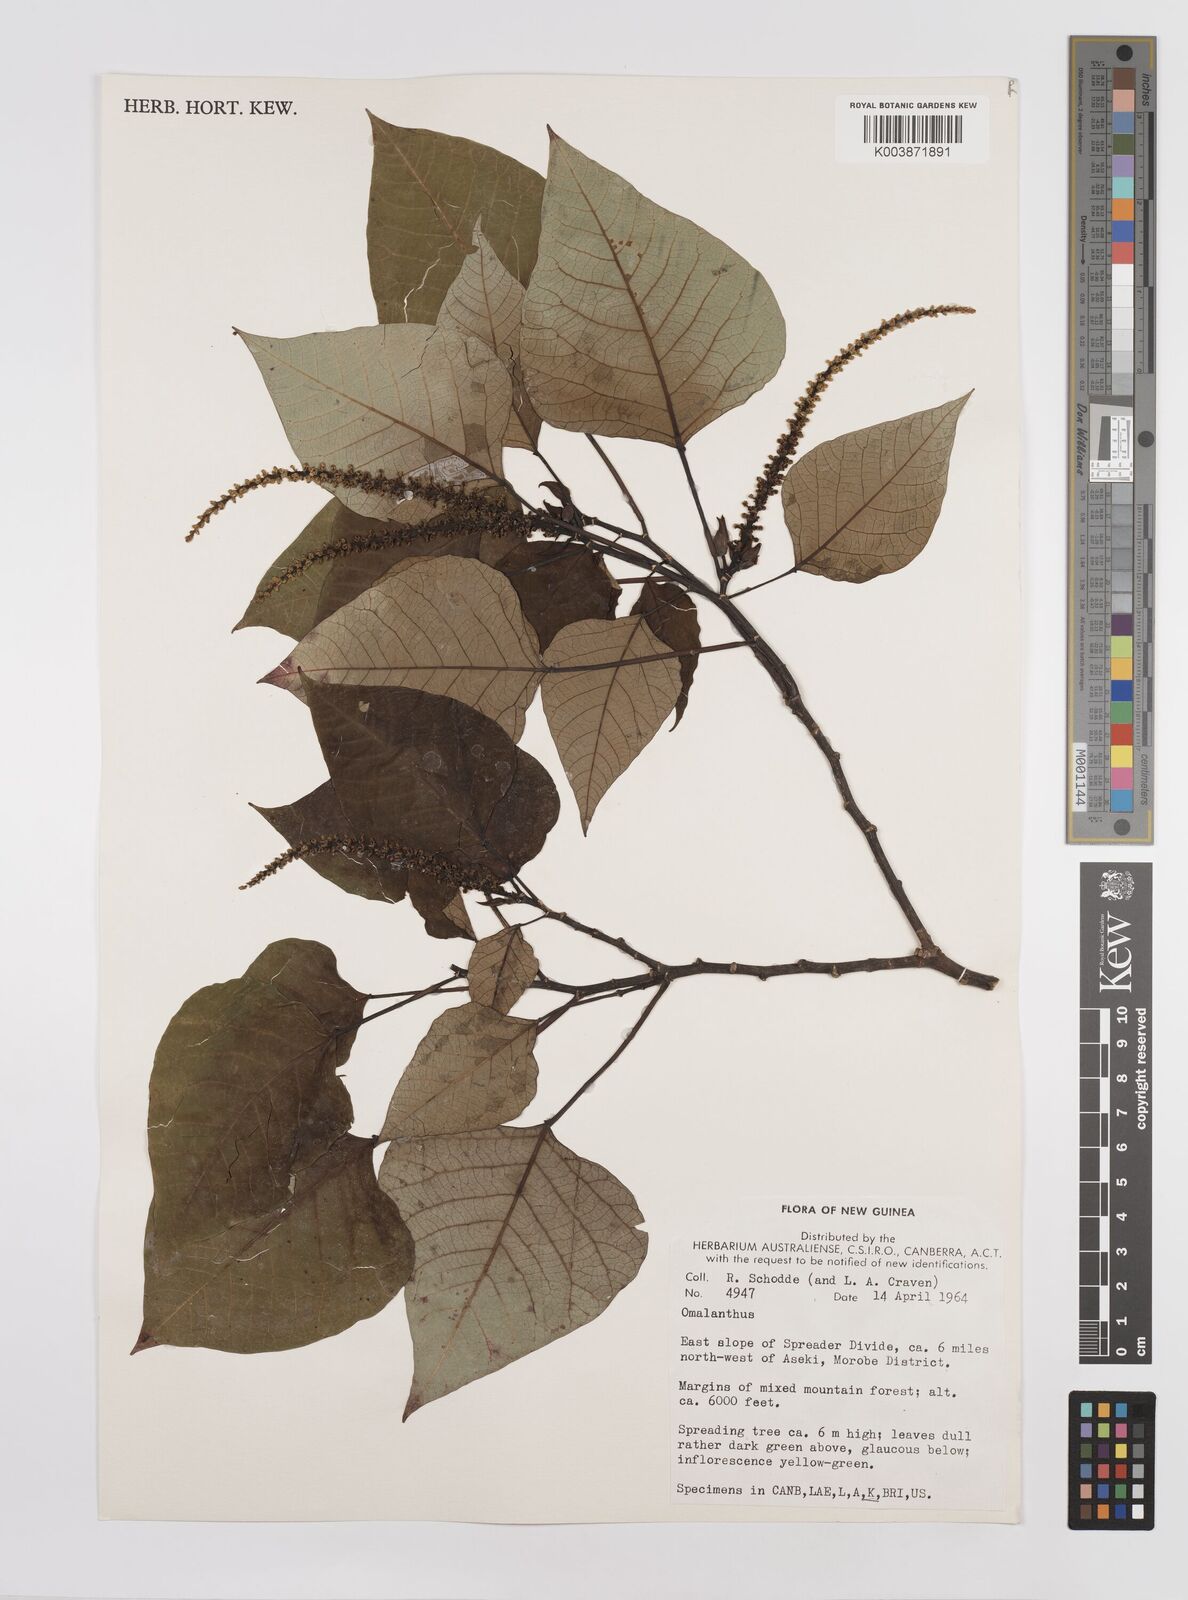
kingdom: Plantae
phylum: Tracheophyta
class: Magnoliopsida
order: Malpighiales
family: Euphorbiaceae
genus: Homalanthus
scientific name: Homalanthus novoguineensis
